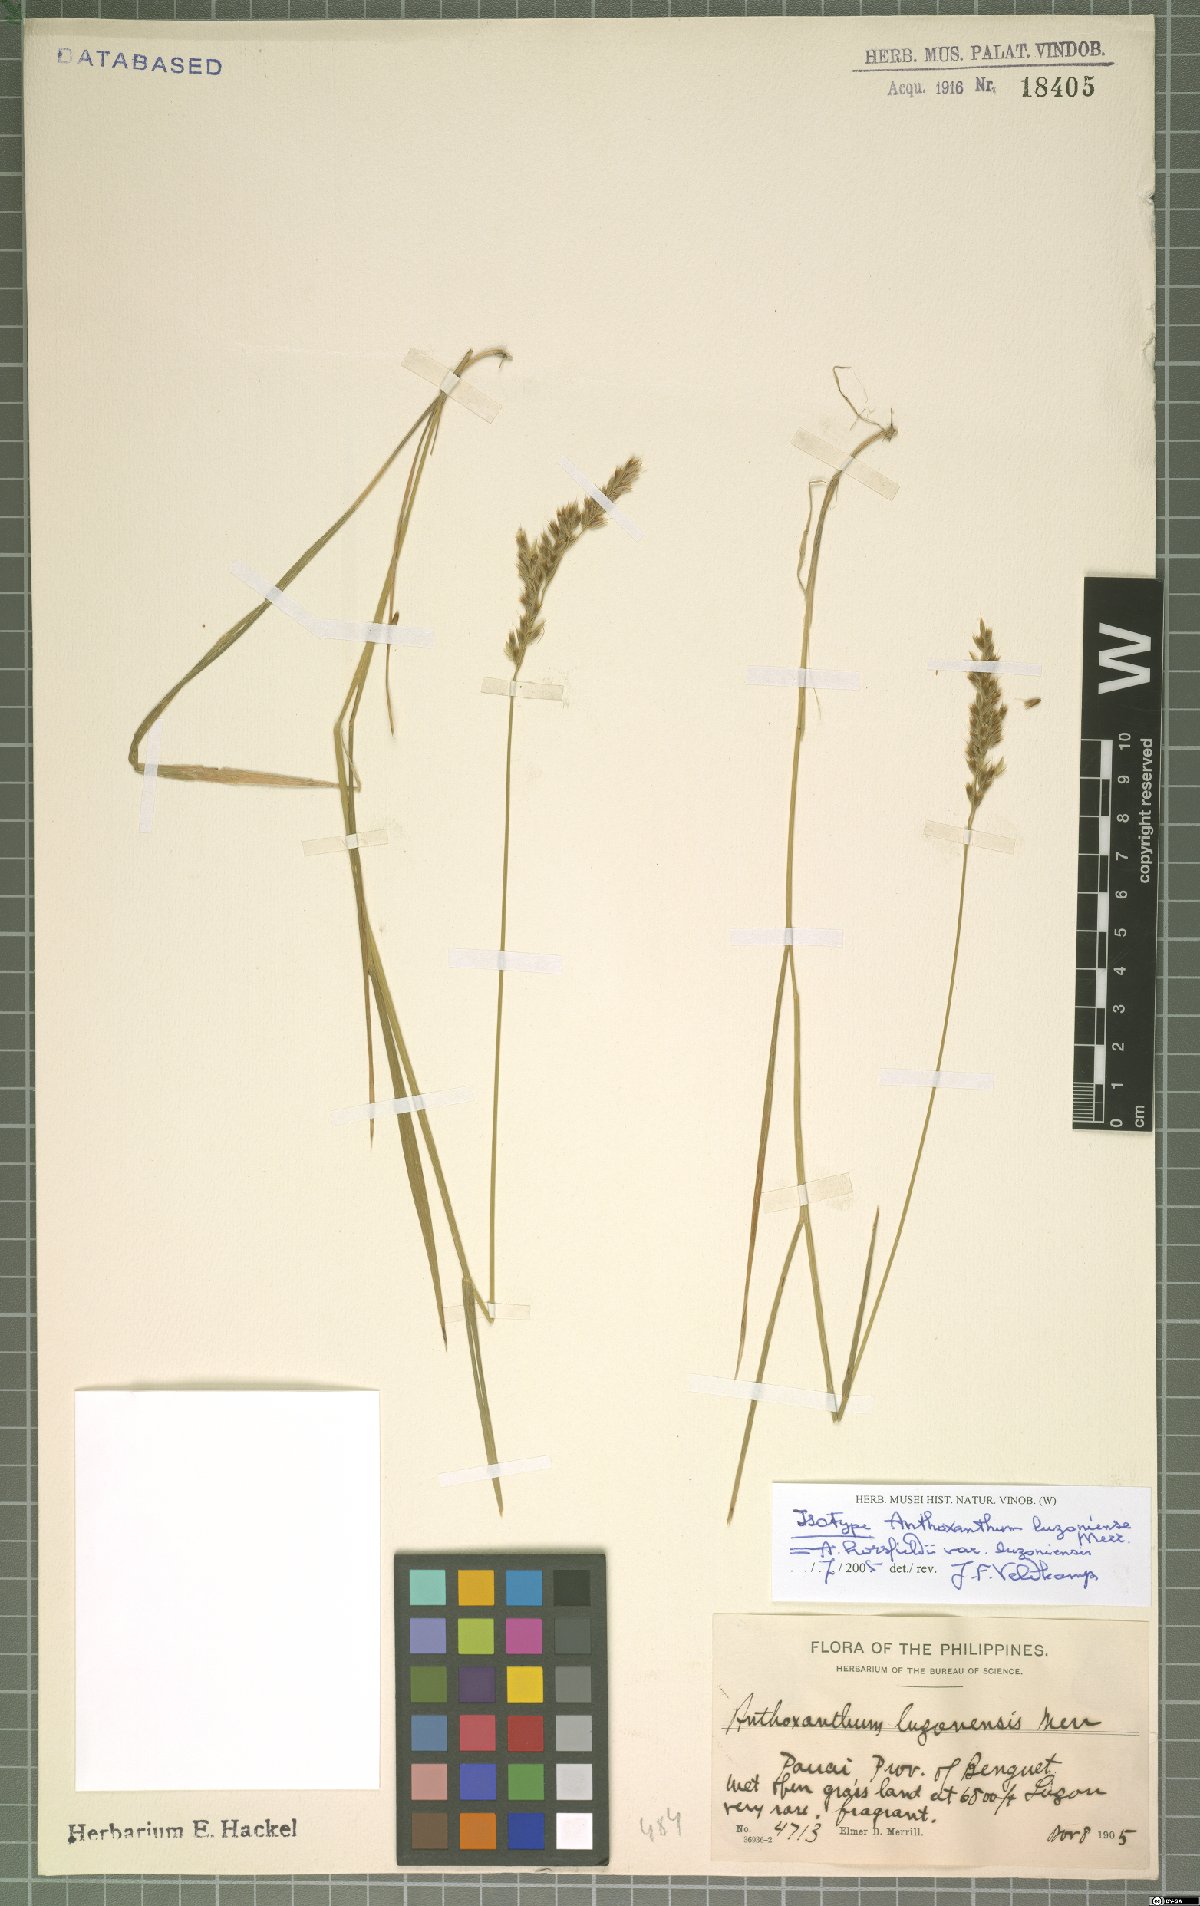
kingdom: Plantae
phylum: Tracheophyta
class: Liliopsida
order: Poales
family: Poaceae
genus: Anthoxanthum
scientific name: Anthoxanthum horsfieldii
